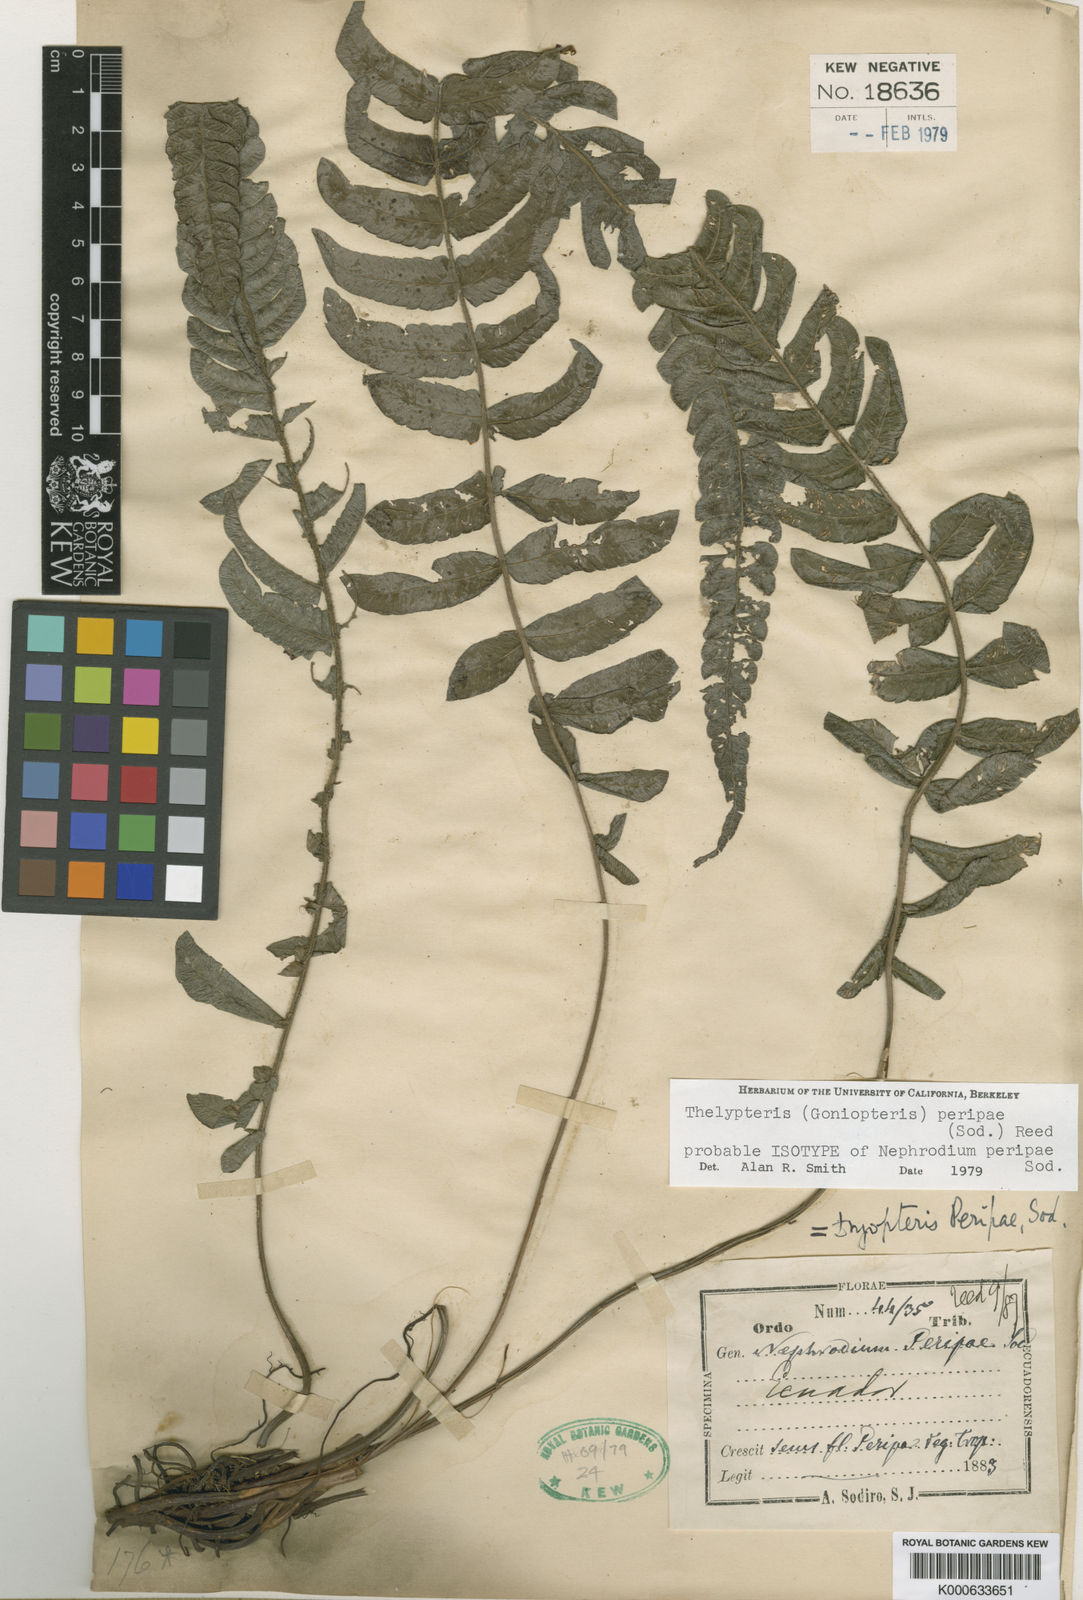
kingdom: Plantae
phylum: Tracheophyta
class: Polypodiopsida
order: Polypodiales
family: Thelypteridaceae
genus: Goniopteris
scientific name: Goniopteris peripae
